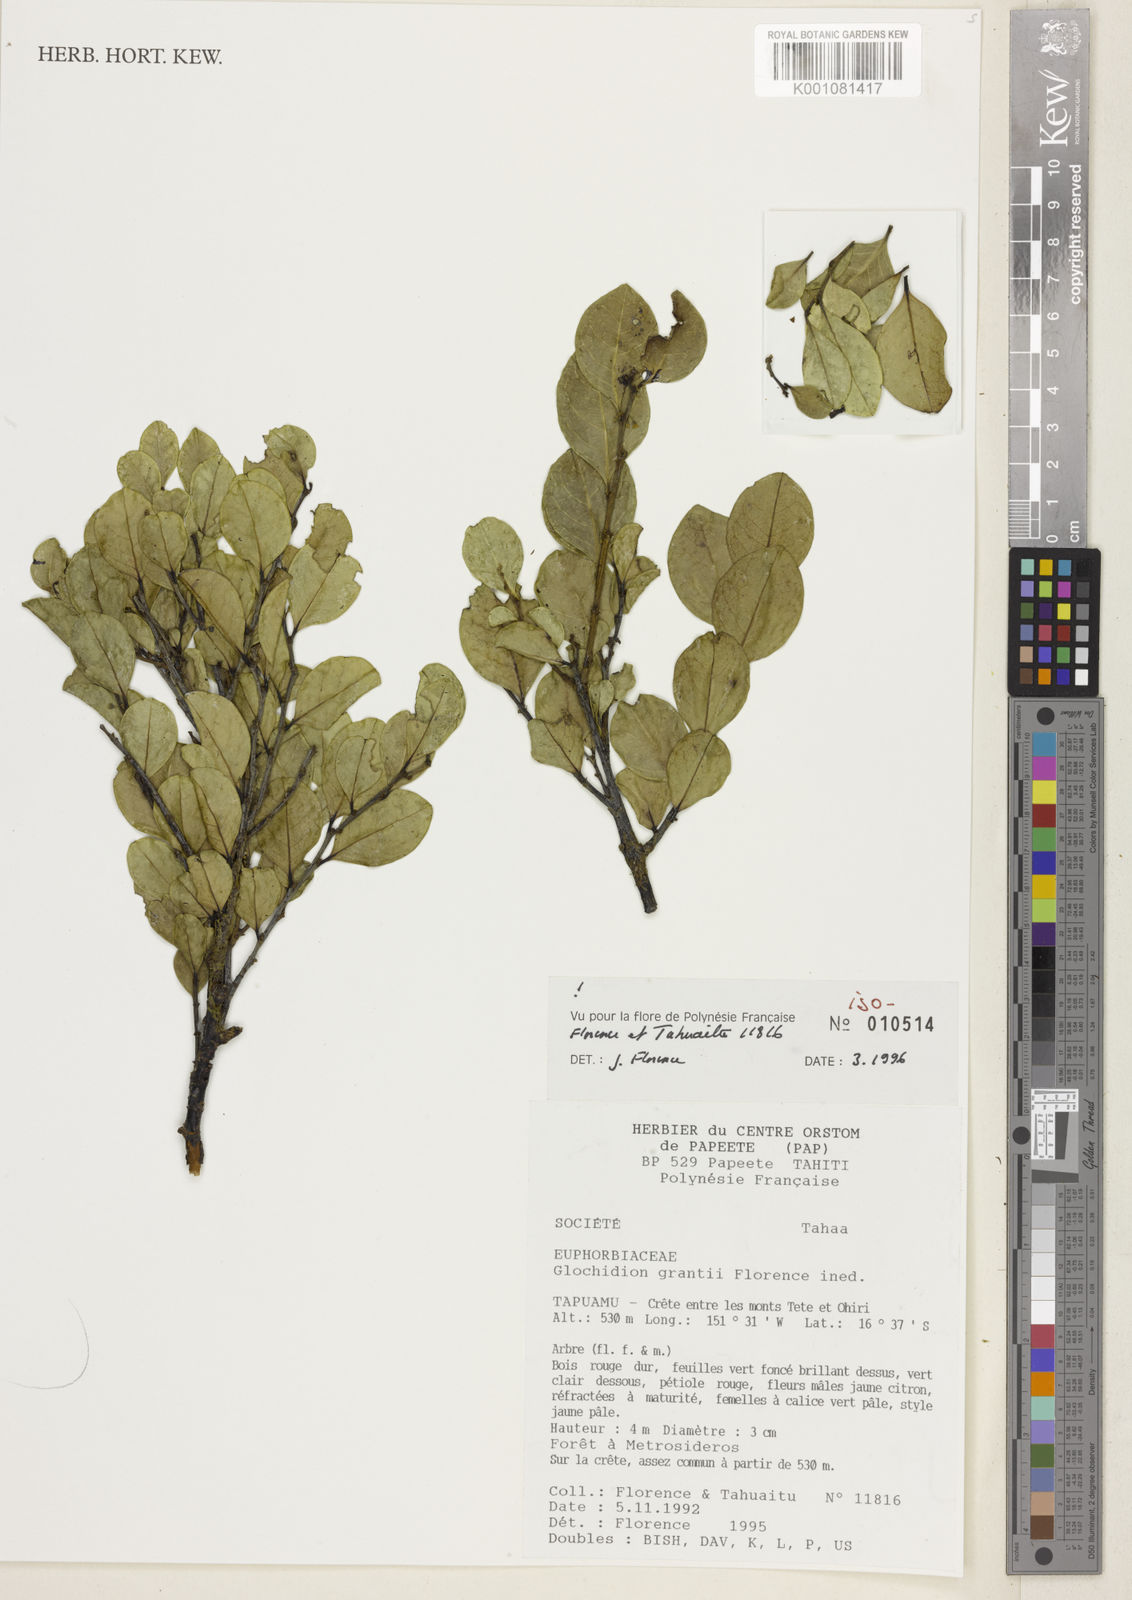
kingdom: Plantae
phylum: Tracheophyta
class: Magnoliopsida
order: Malpighiales
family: Phyllanthaceae
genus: Glochidion
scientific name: Glochidion grantii
